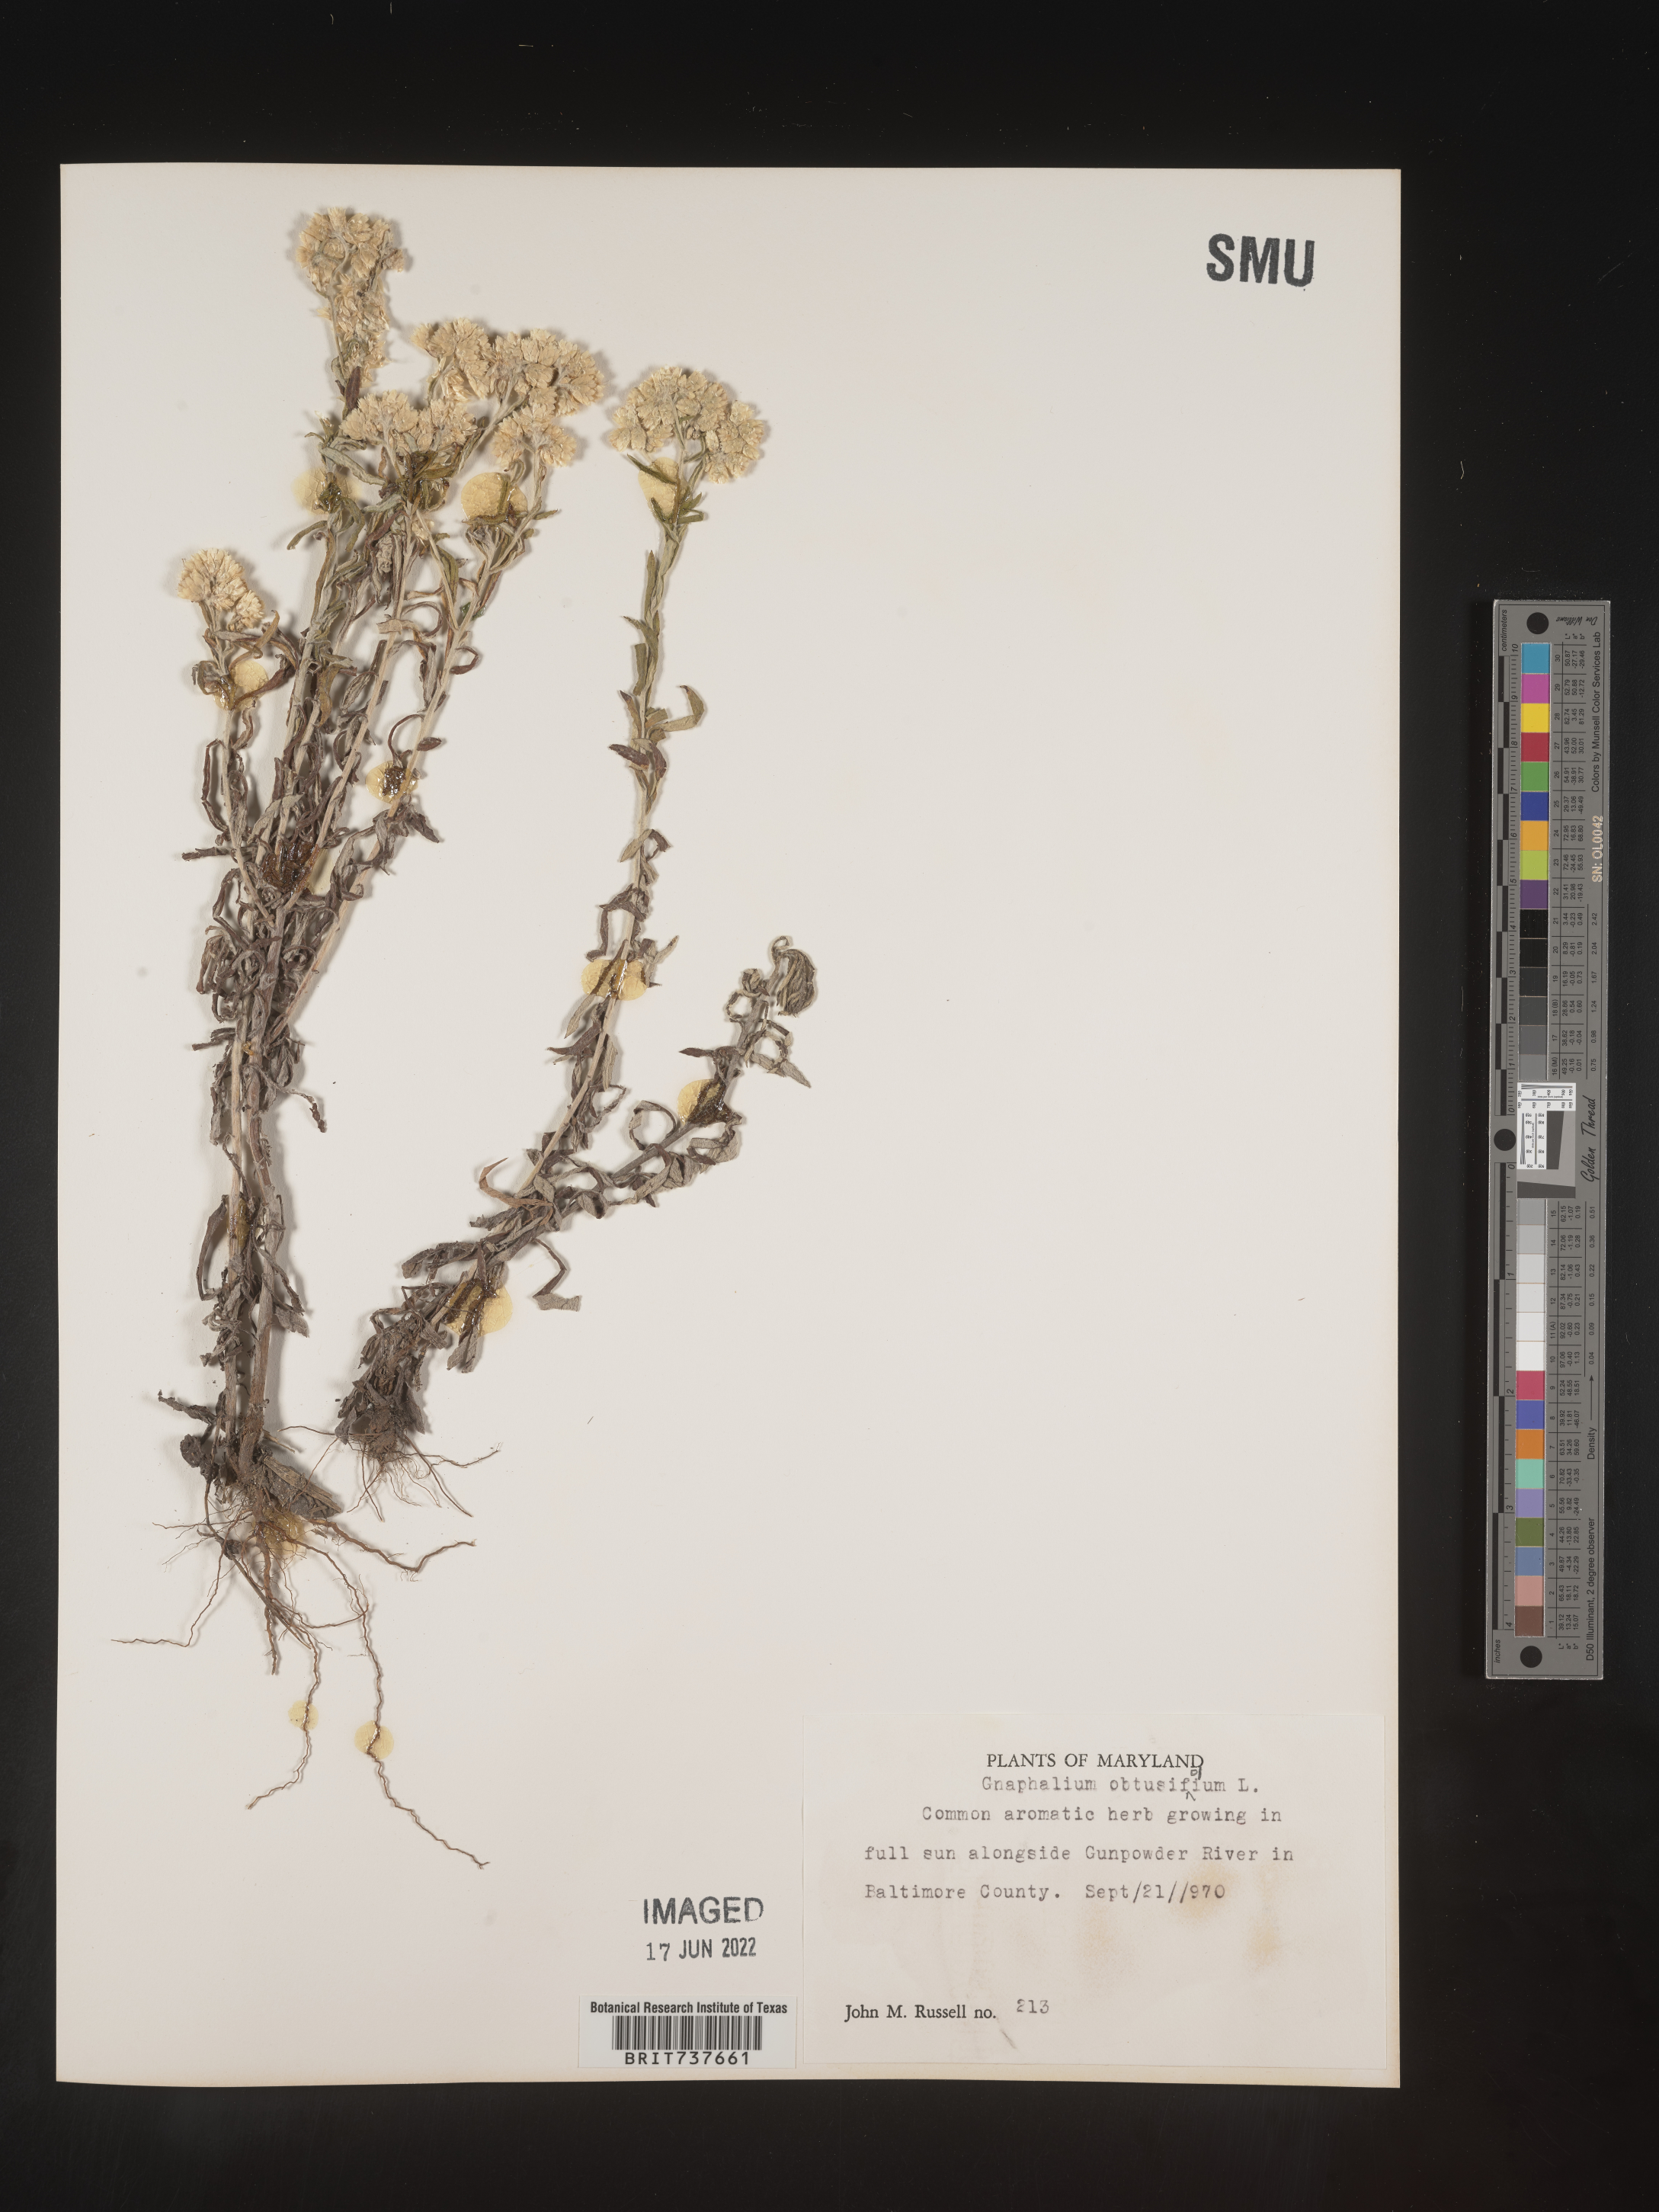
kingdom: Plantae
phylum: Tracheophyta
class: Magnoliopsida
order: Asterales
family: Asteraceae
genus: Pseudognaphalium
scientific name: Pseudognaphalium obtusifolium
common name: Eastern rabbit-tobacco
